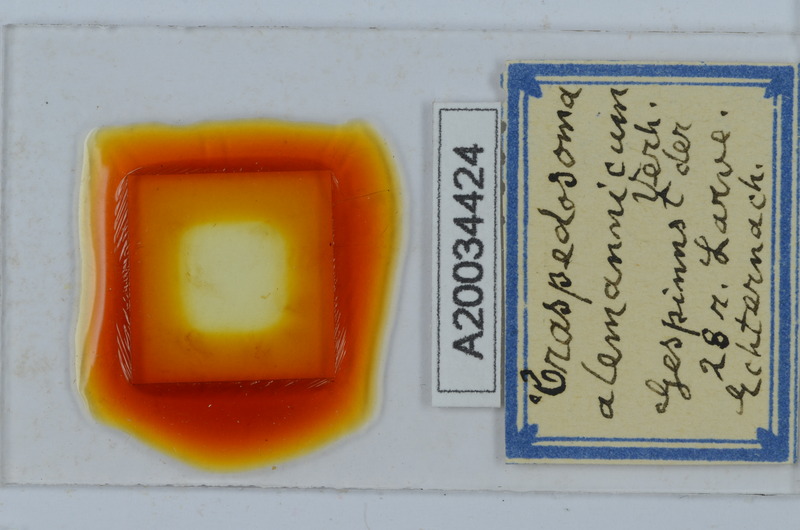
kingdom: Animalia
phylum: Arthropoda
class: Diplopoda
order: Chordeumatida
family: Craspedosomatidae
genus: Craspedosoma
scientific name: Craspedosoma alemannicum
